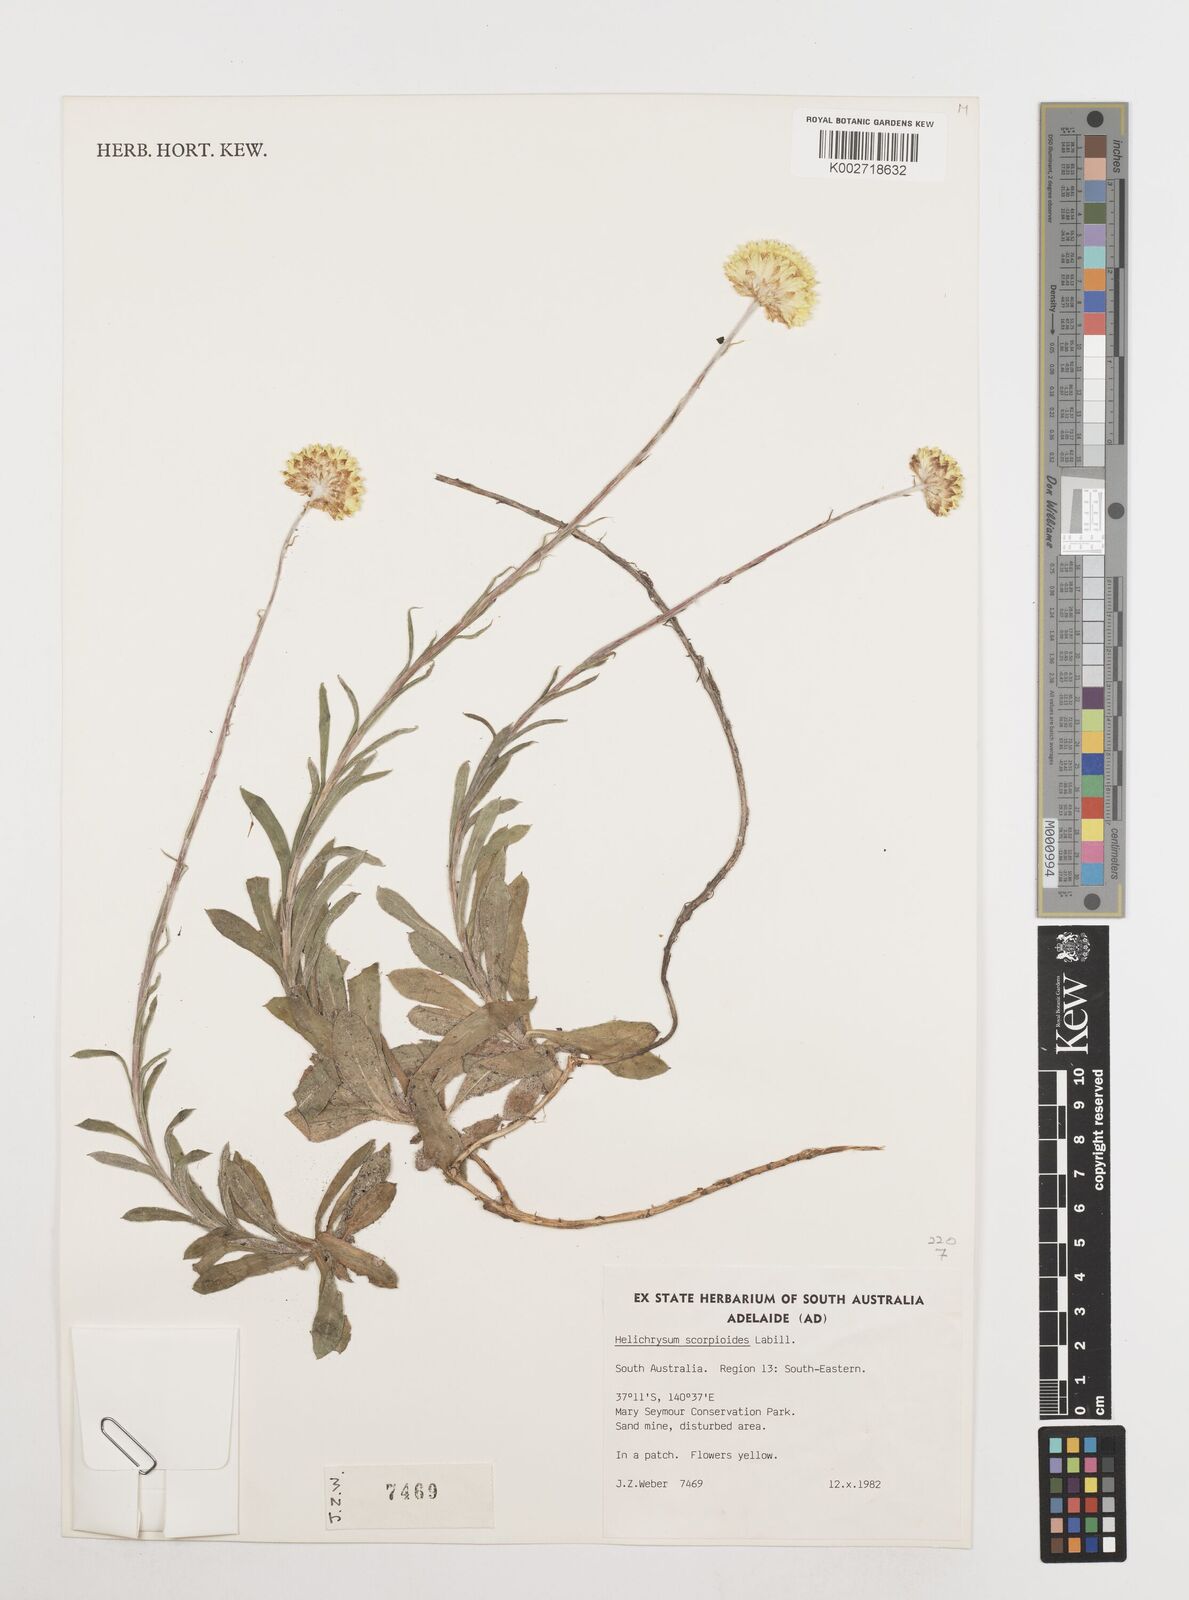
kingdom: Plantae
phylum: Tracheophyta
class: Magnoliopsida
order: Asterales
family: Asteraceae
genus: Coronidium
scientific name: Coronidium scorpioides
